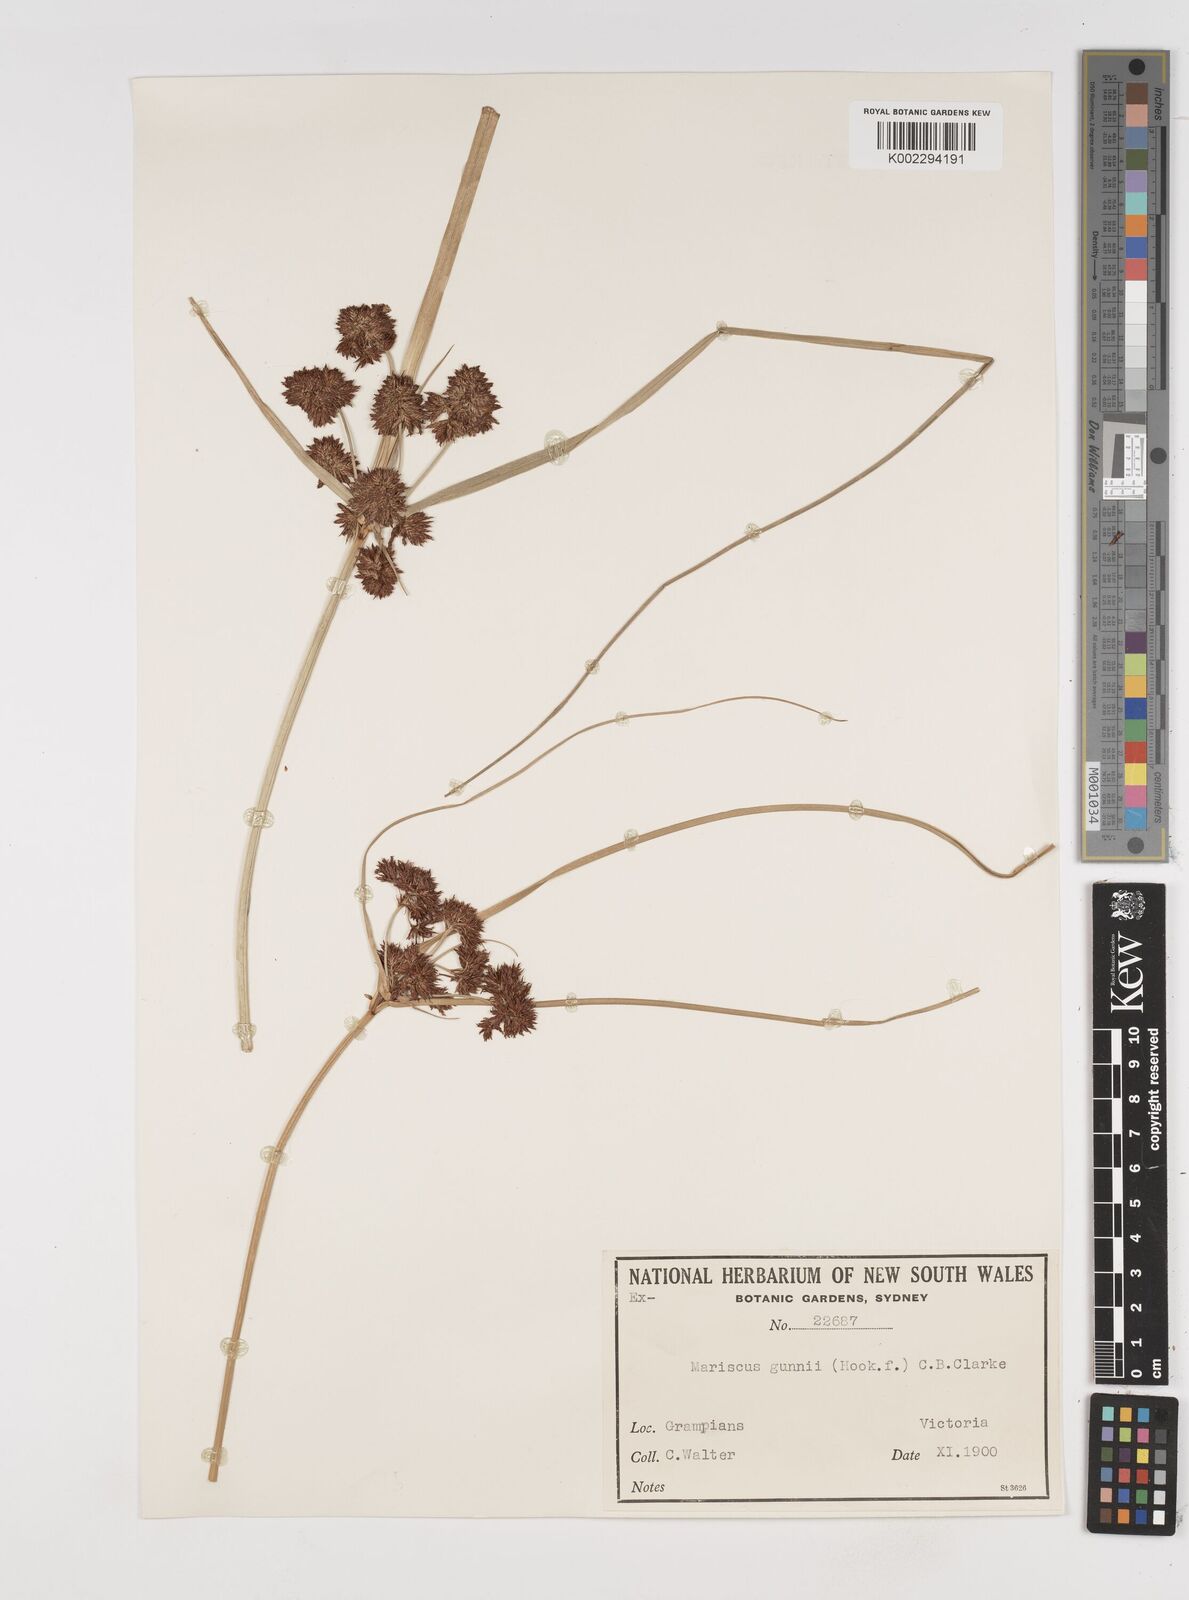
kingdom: Plantae
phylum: Tracheophyta
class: Liliopsida
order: Poales
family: Cyperaceae
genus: Cyperus
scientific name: Cyperus gunnii
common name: Flecked flat-sedge
